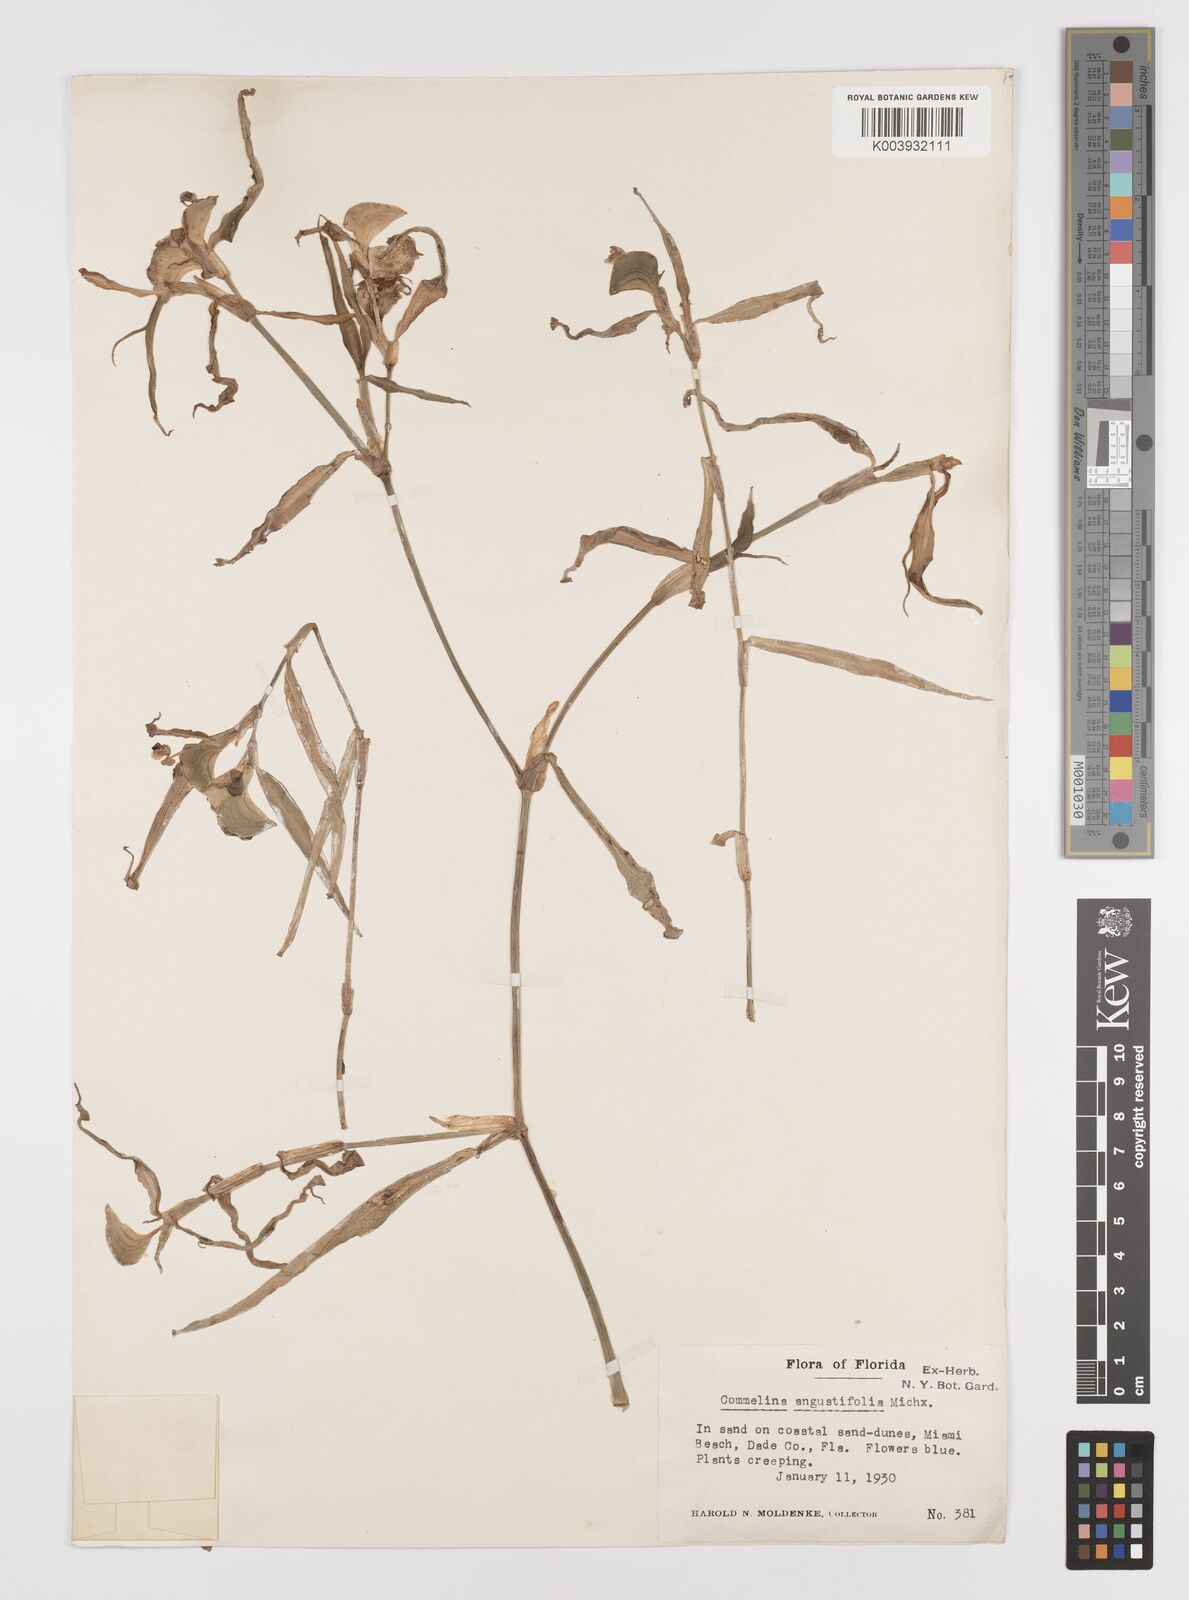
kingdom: Plantae
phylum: Tracheophyta
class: Liliopsida
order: Commelinales
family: Commelinaceae
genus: Commelina
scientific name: Commelina erecta
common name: Blousel blommetjie
